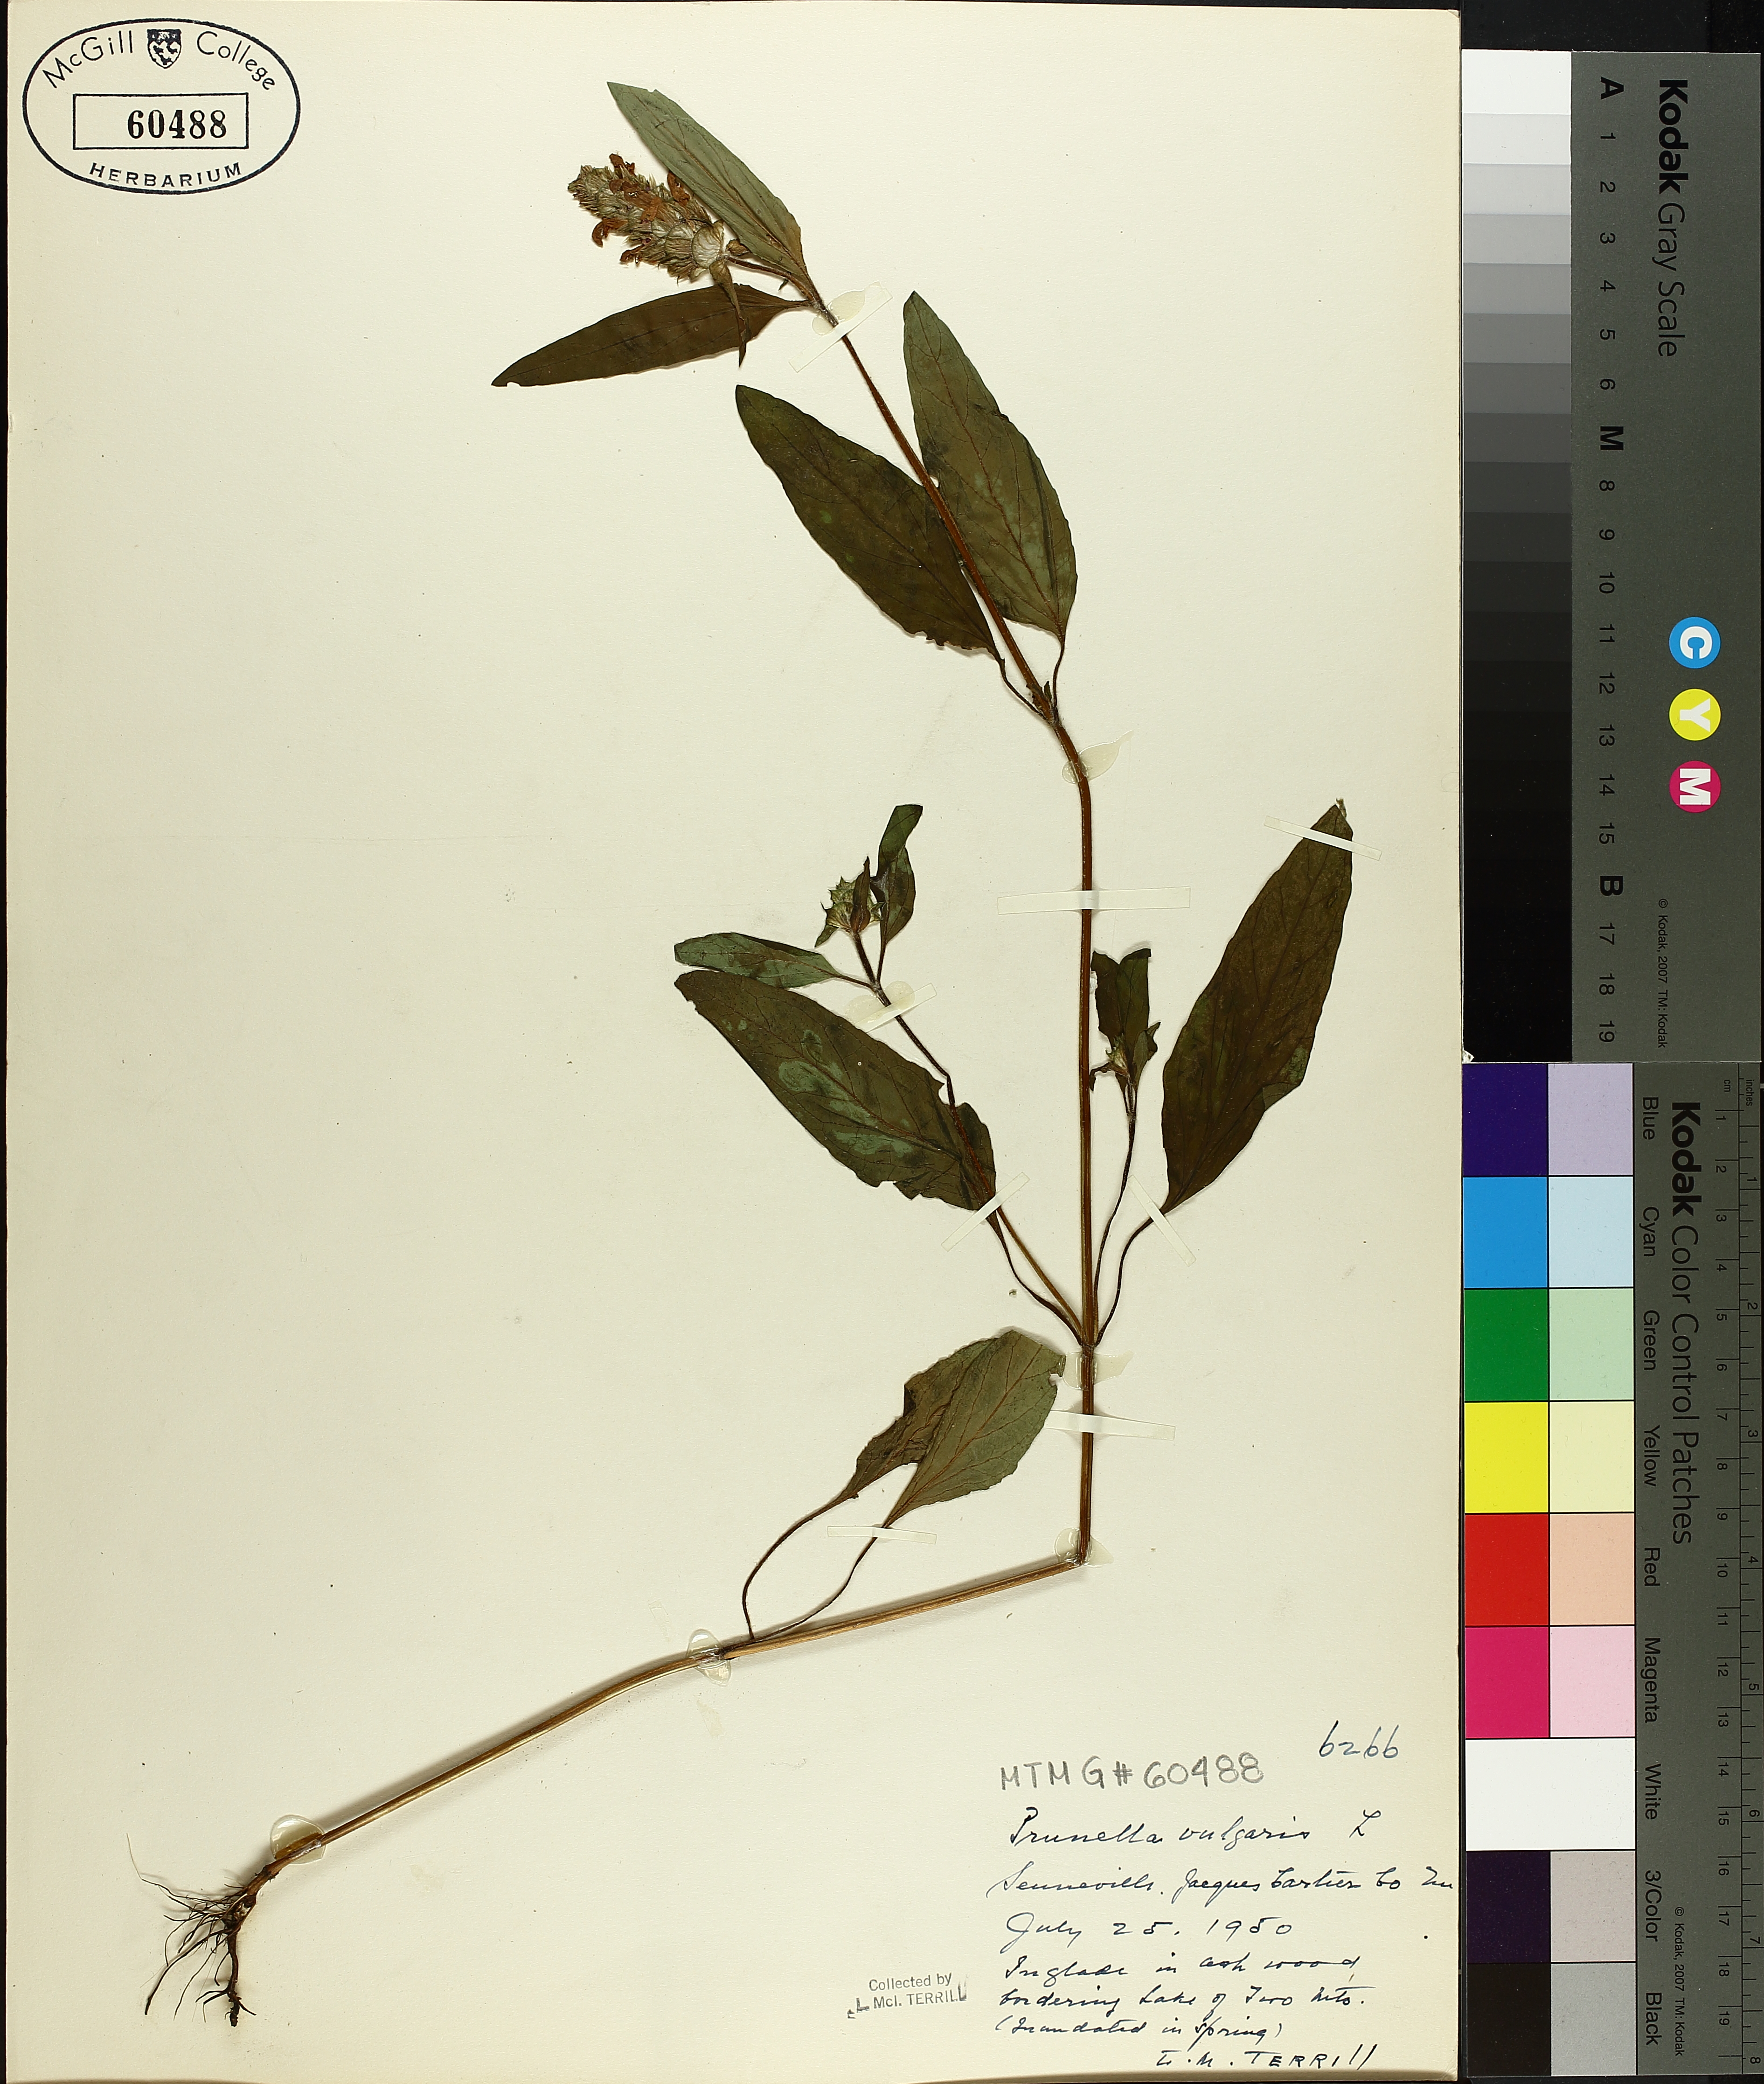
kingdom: Plantae
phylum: Tracheophyta
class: Magnoliopsida
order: Lamiales
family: Lamiaceae
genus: Prunella
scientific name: Prunella vulgaris
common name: Heal-all
